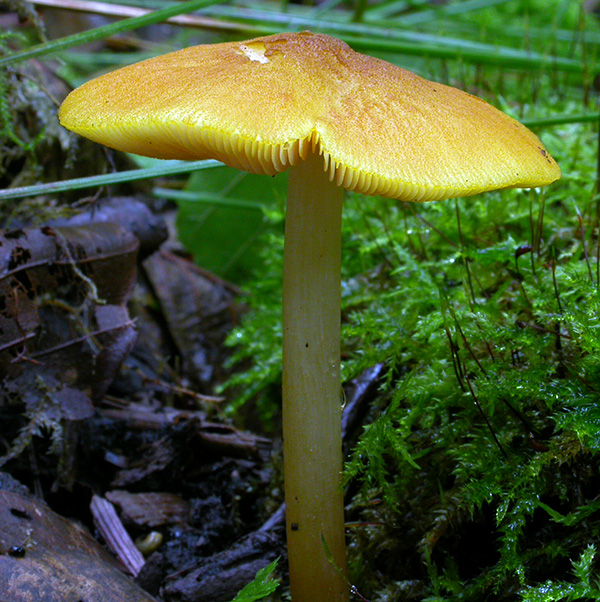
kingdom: Fungi
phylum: Basidiomycota
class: Agaricomycetes
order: Agaricales
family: Pluteaceae
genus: Pluteus
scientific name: Pluteus leoninus
